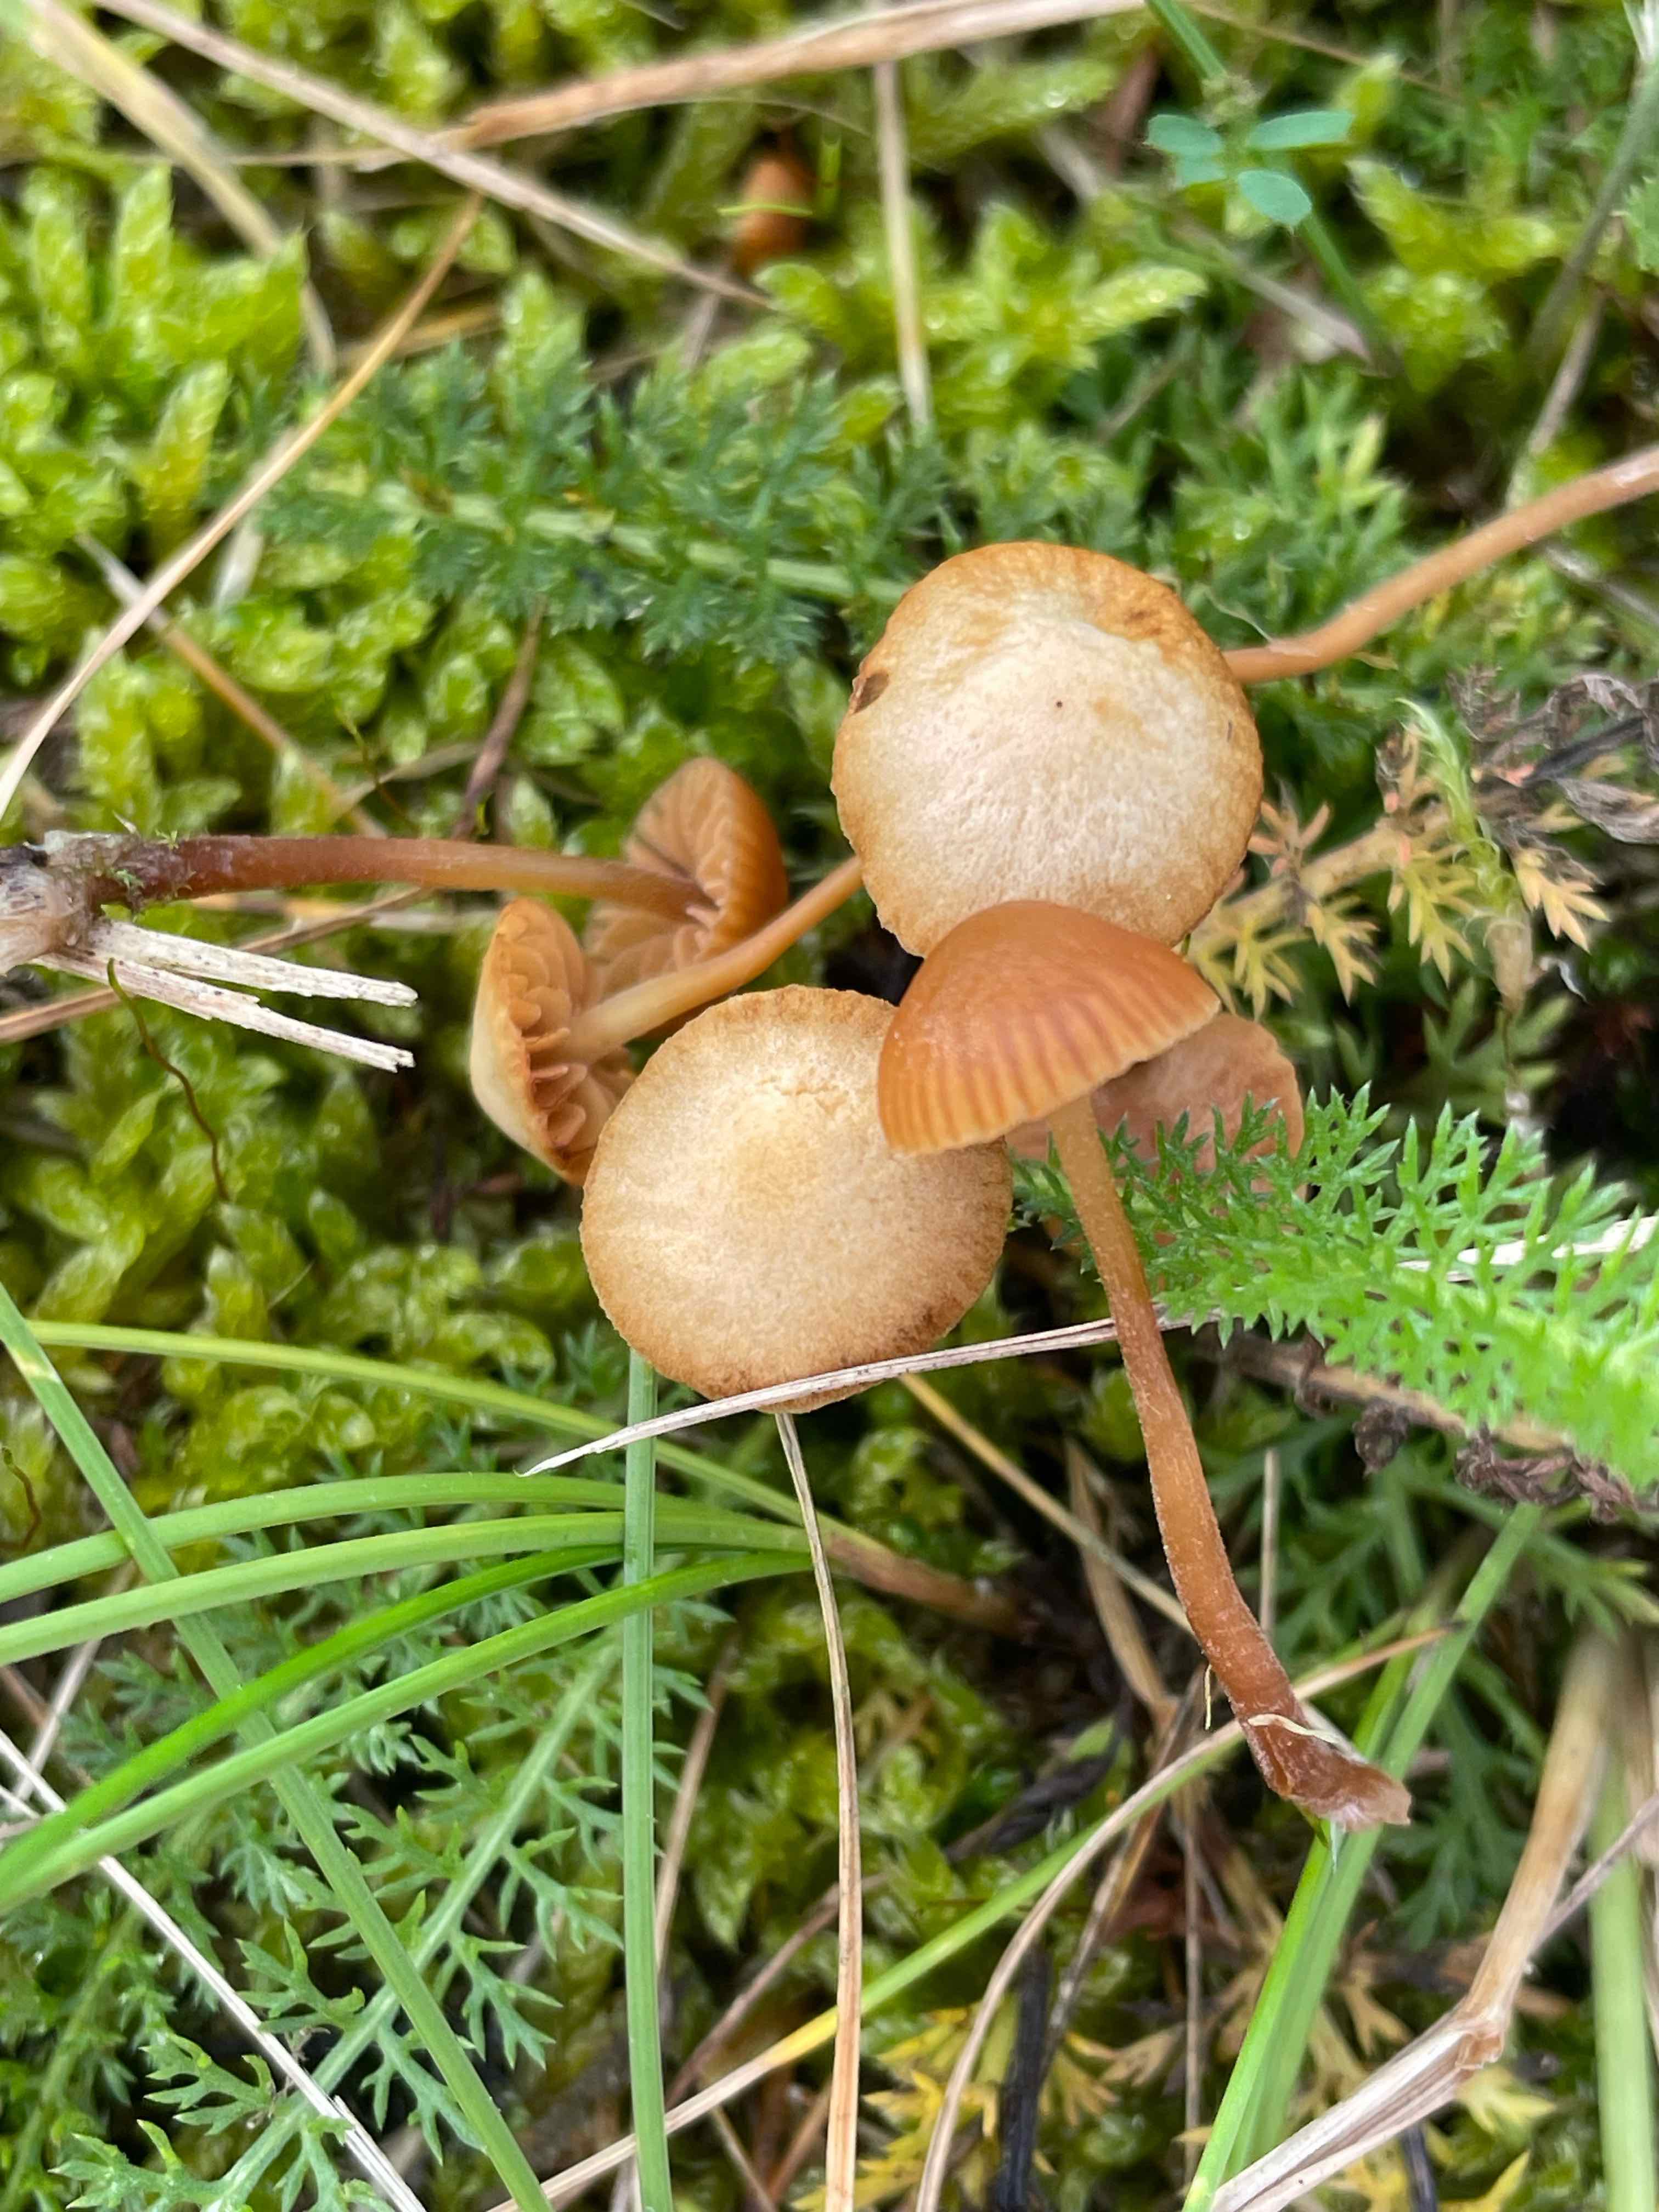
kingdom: Fungi
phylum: Basidiomycota
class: Agaricomycetes
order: Agaricales
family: Hymenogastraceae
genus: Galerina
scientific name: Galerina
